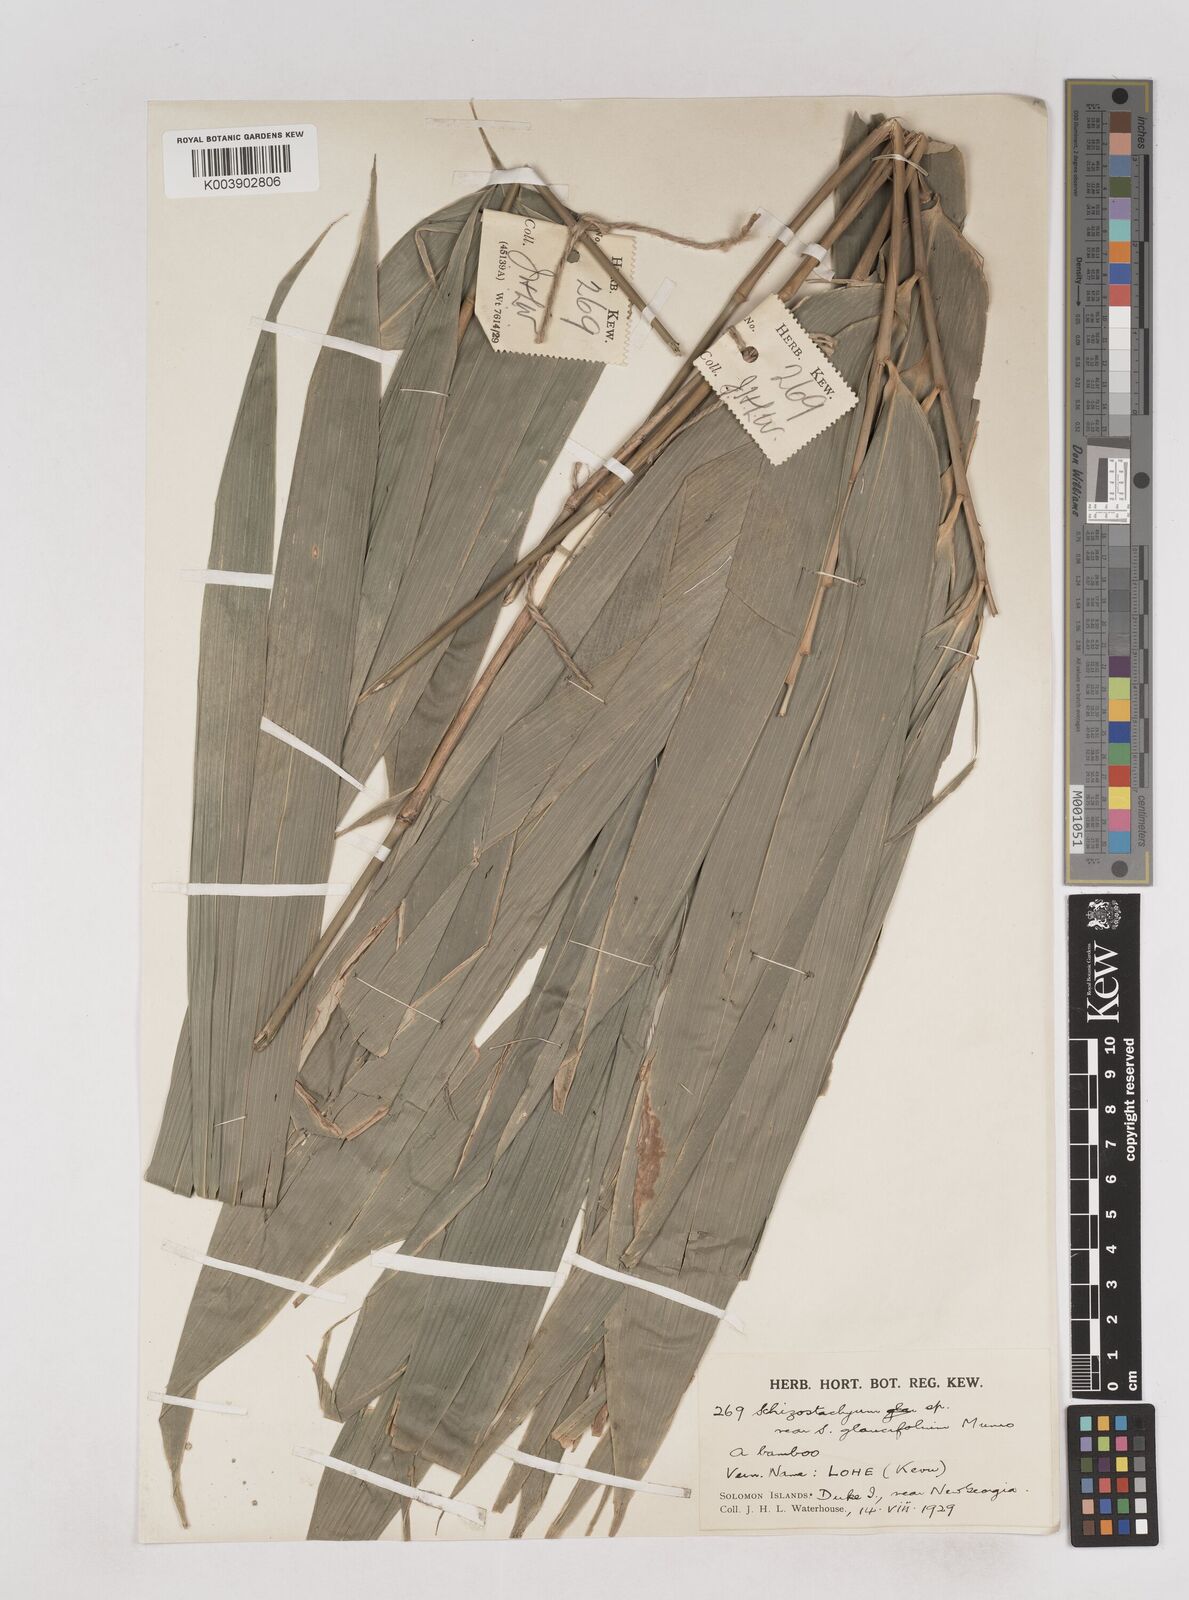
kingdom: Plantae
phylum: Tracheophyta
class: Liliopsida
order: Poales
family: Poaceae
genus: Schizostachyum
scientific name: Schizostachyum
